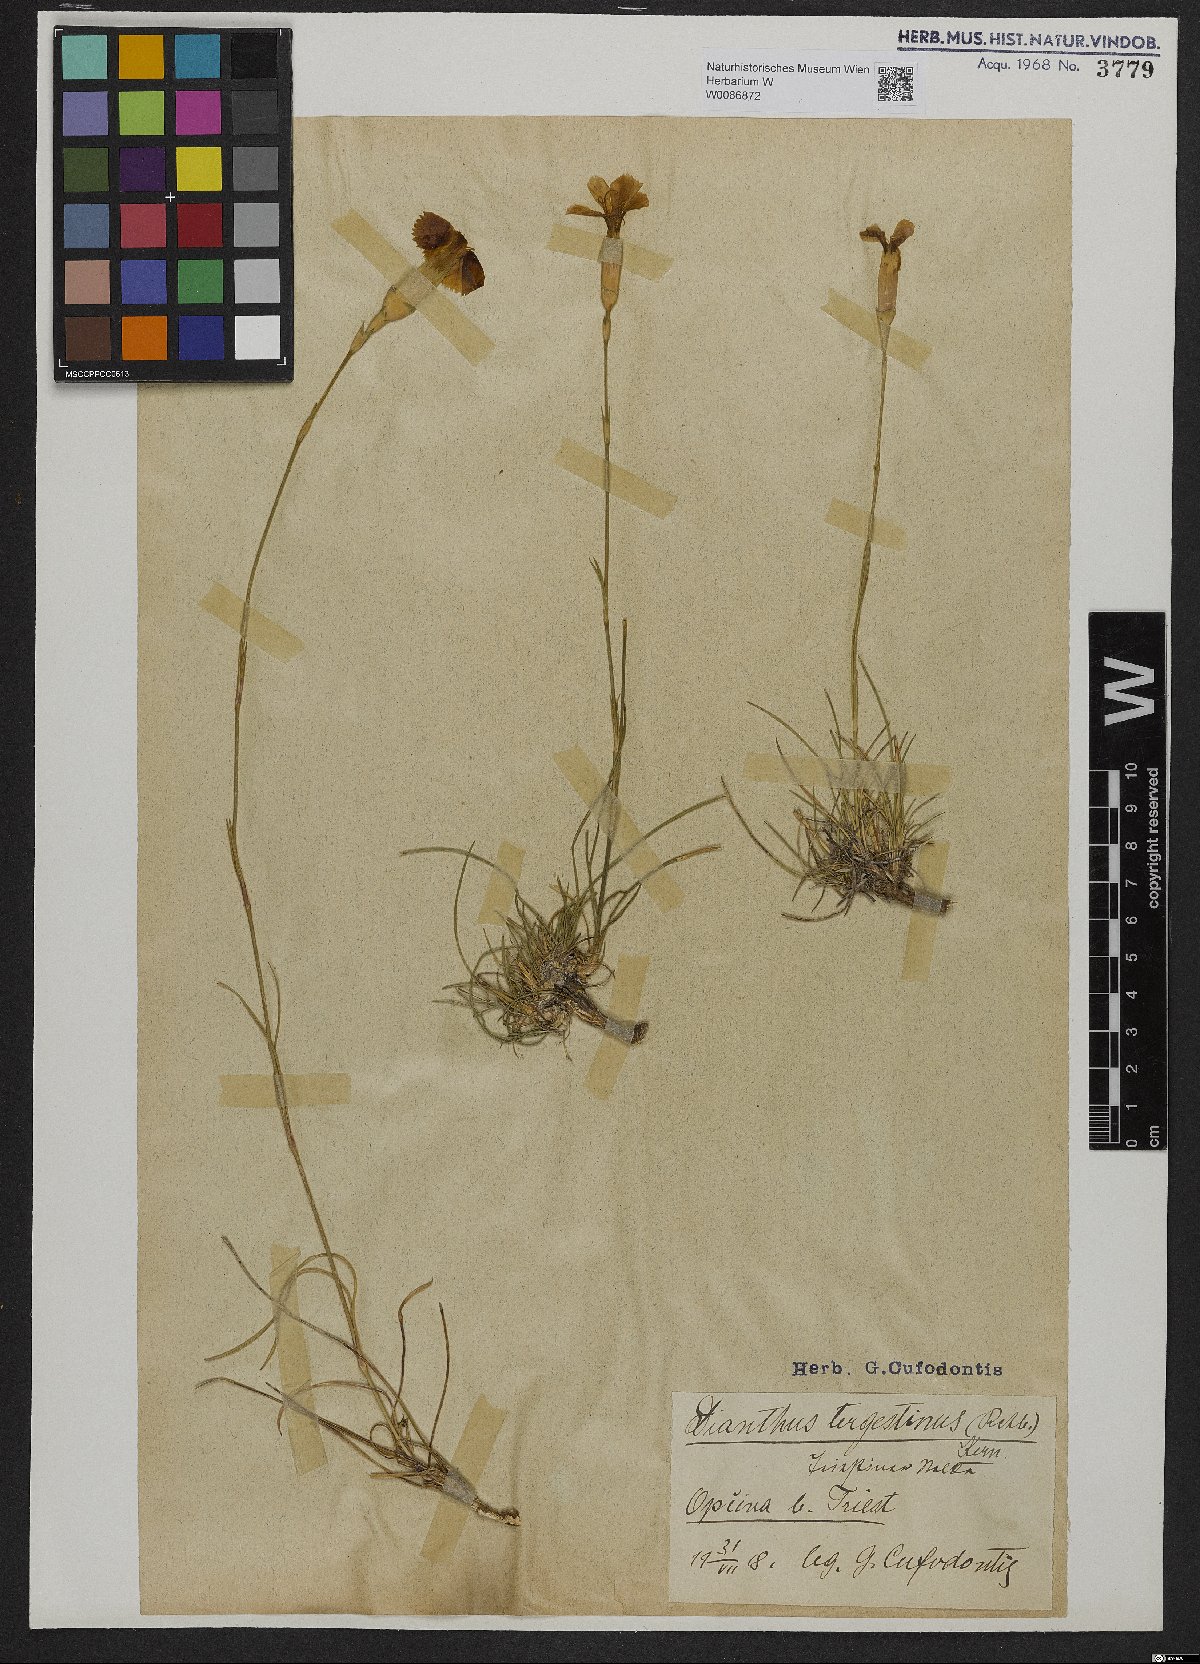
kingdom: Plantae
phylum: Tracheophyta
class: Magnoliopsida
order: Caryophyllales
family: Caryophyllaceae
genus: Dianthus
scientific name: Dianthus sylvestris
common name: Wood pink
